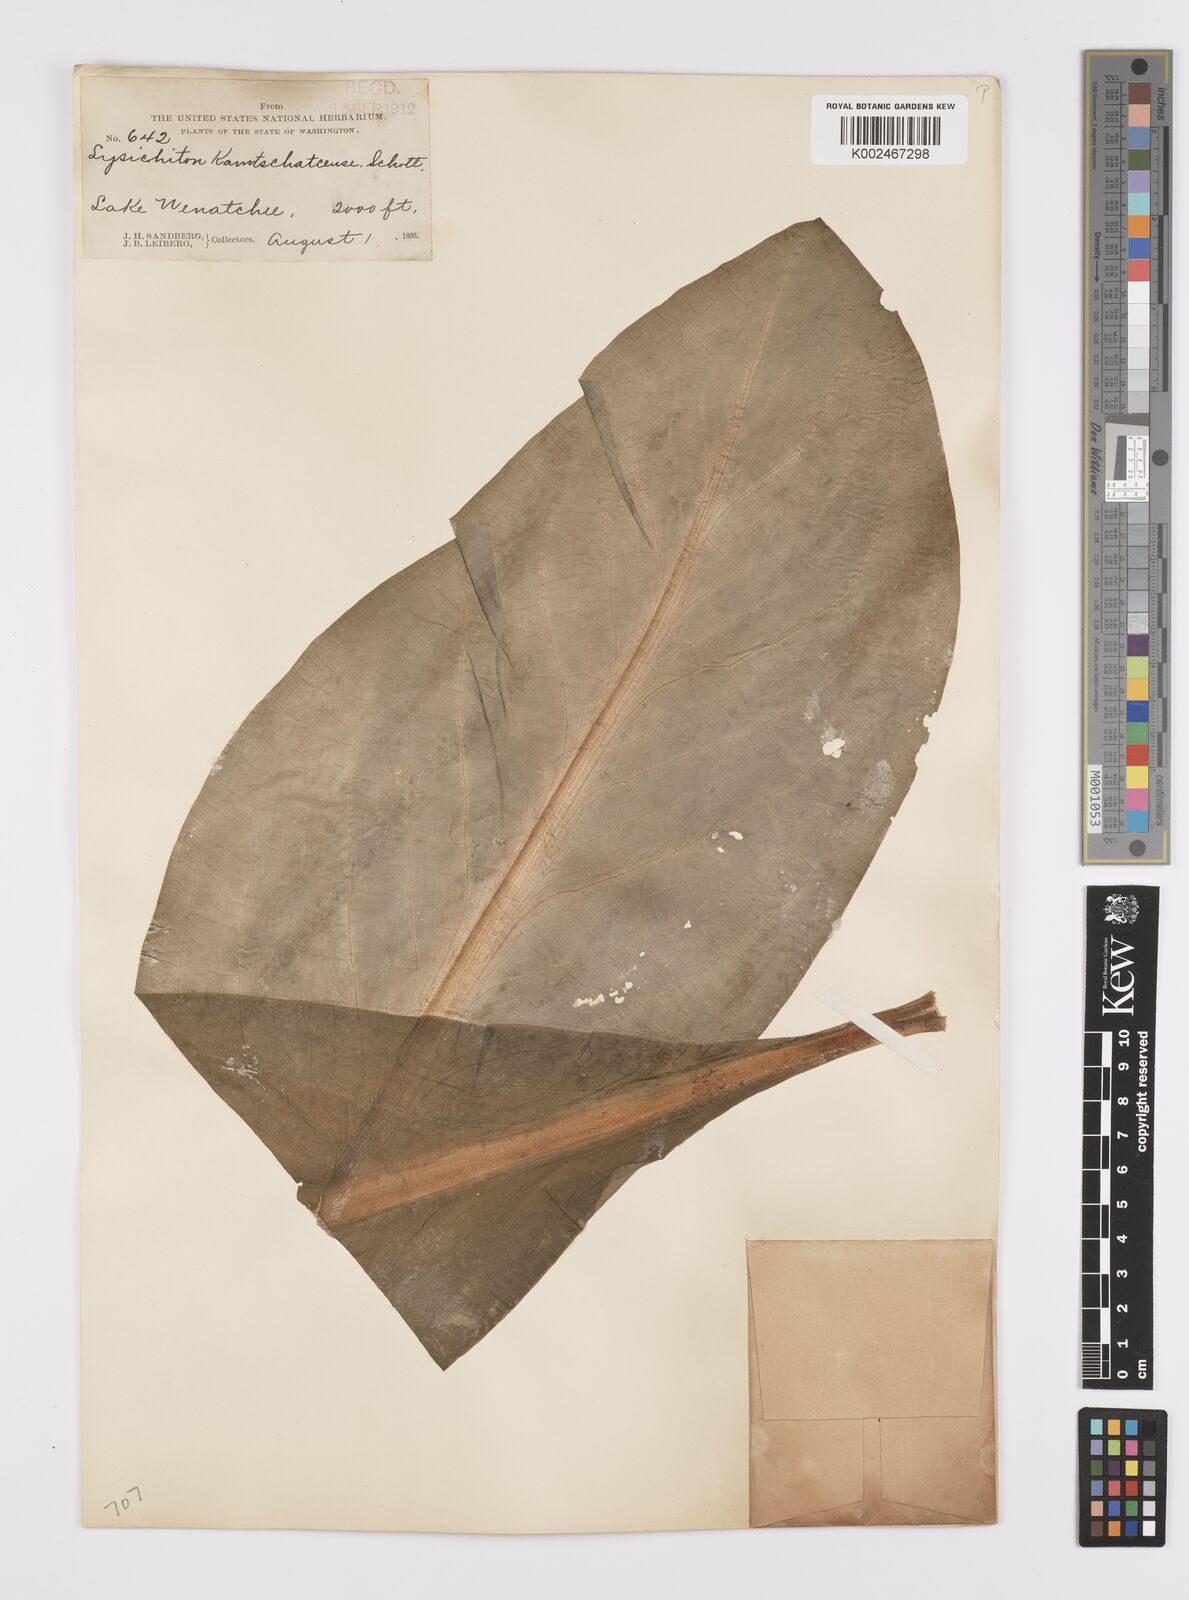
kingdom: Plantae
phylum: Tracheophyta
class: Liliopsida
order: Alismatales
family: Araceae
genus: Lysichiton
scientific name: Lysichiton americanus
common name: American skunk cabbage
